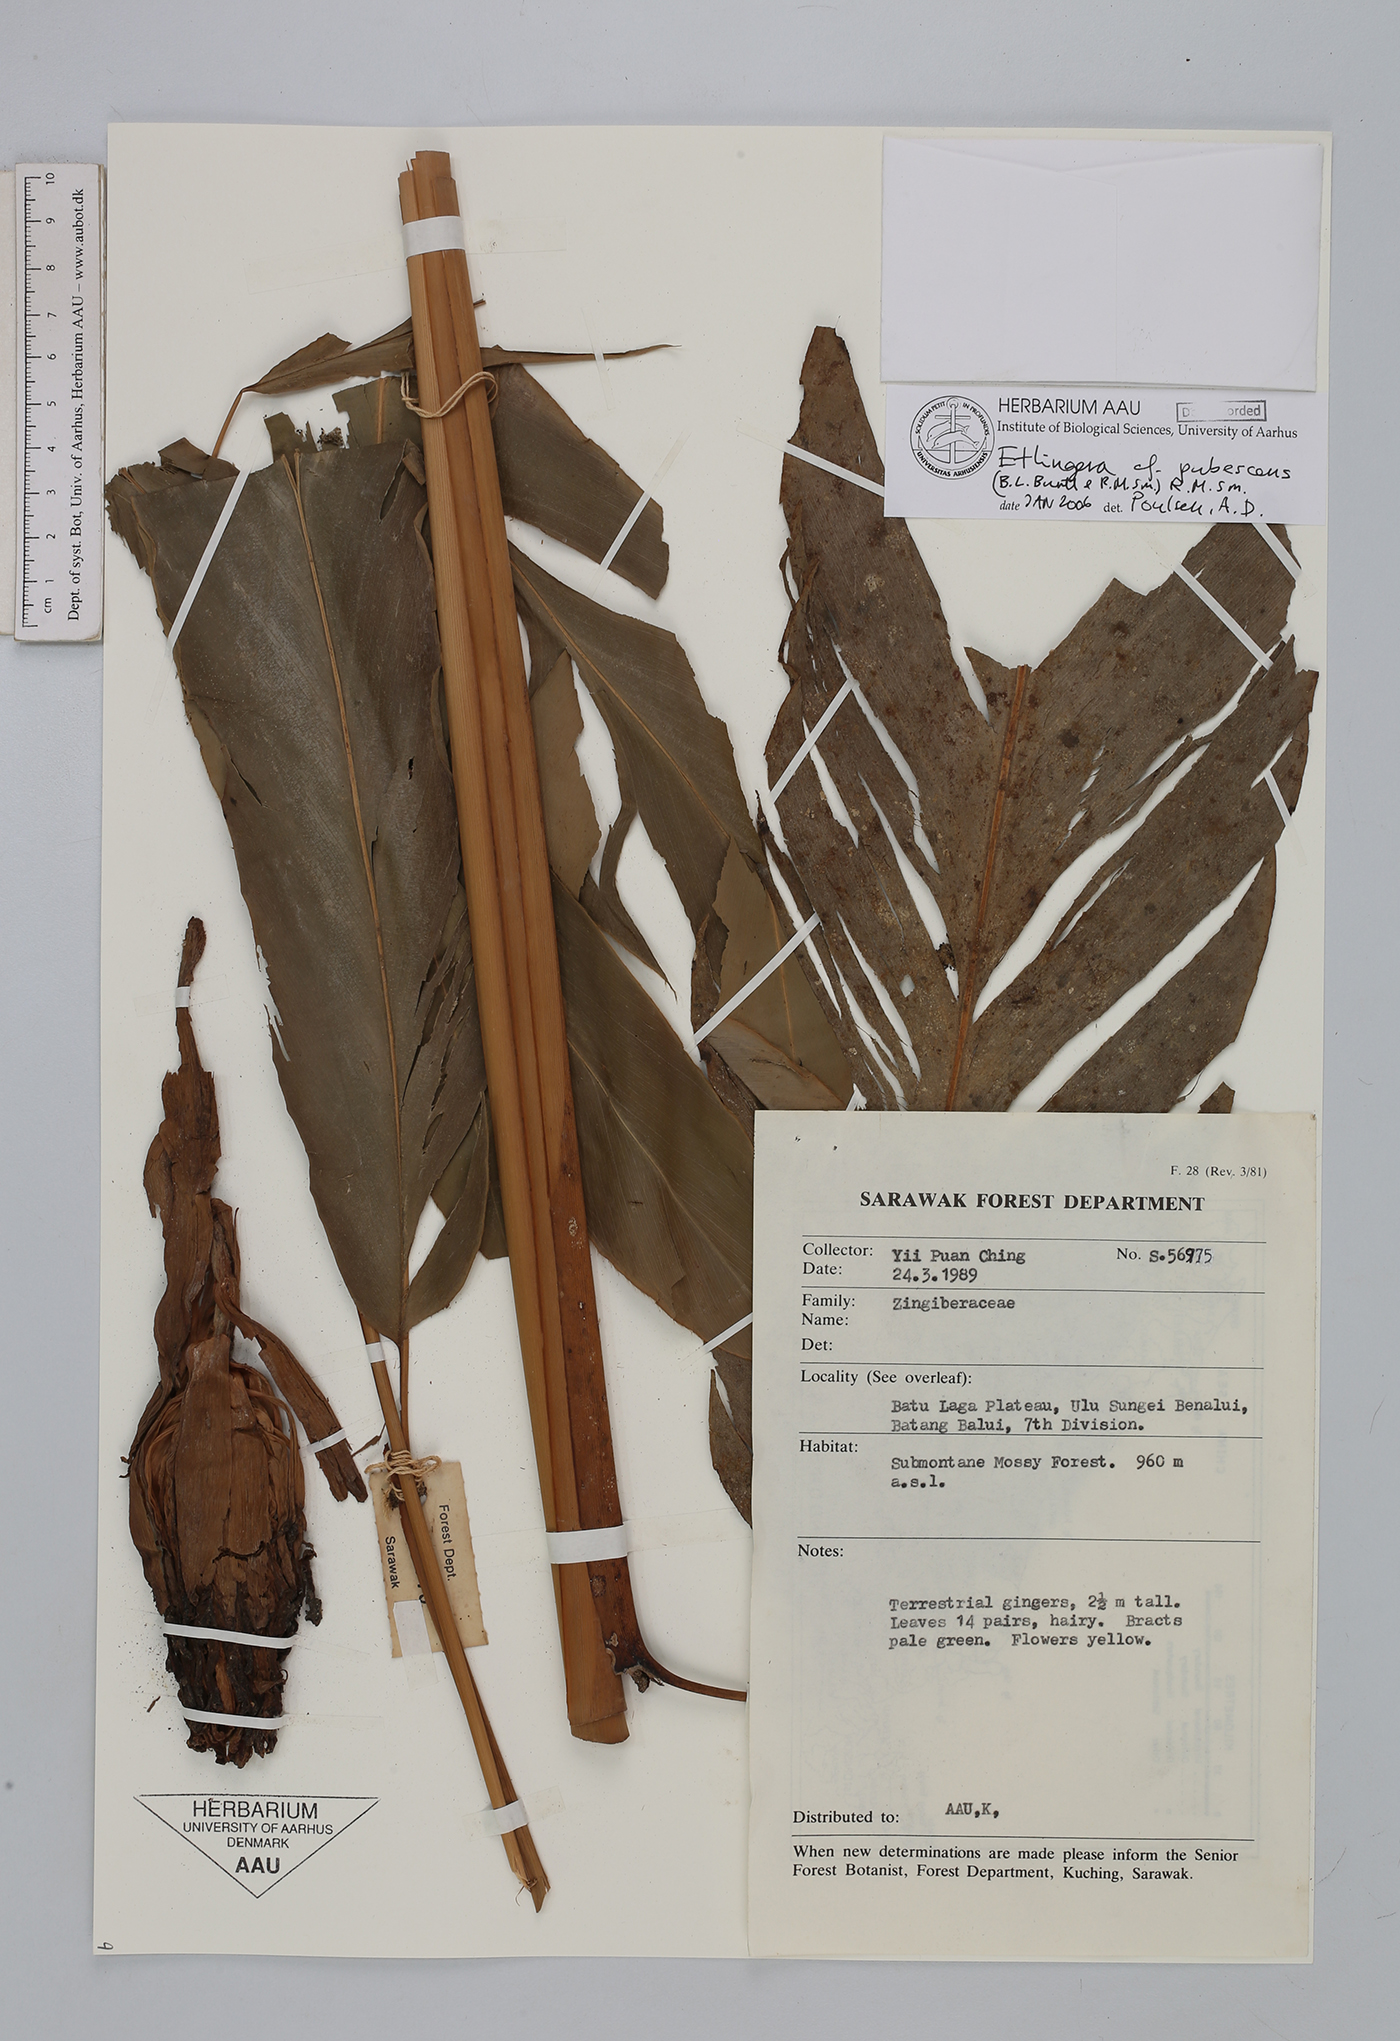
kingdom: Plantae
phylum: Tracheophyta
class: Liliopsida
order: Zingiberales
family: Zingiberaceae
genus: Etlingera
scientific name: Etlingera pubescens
